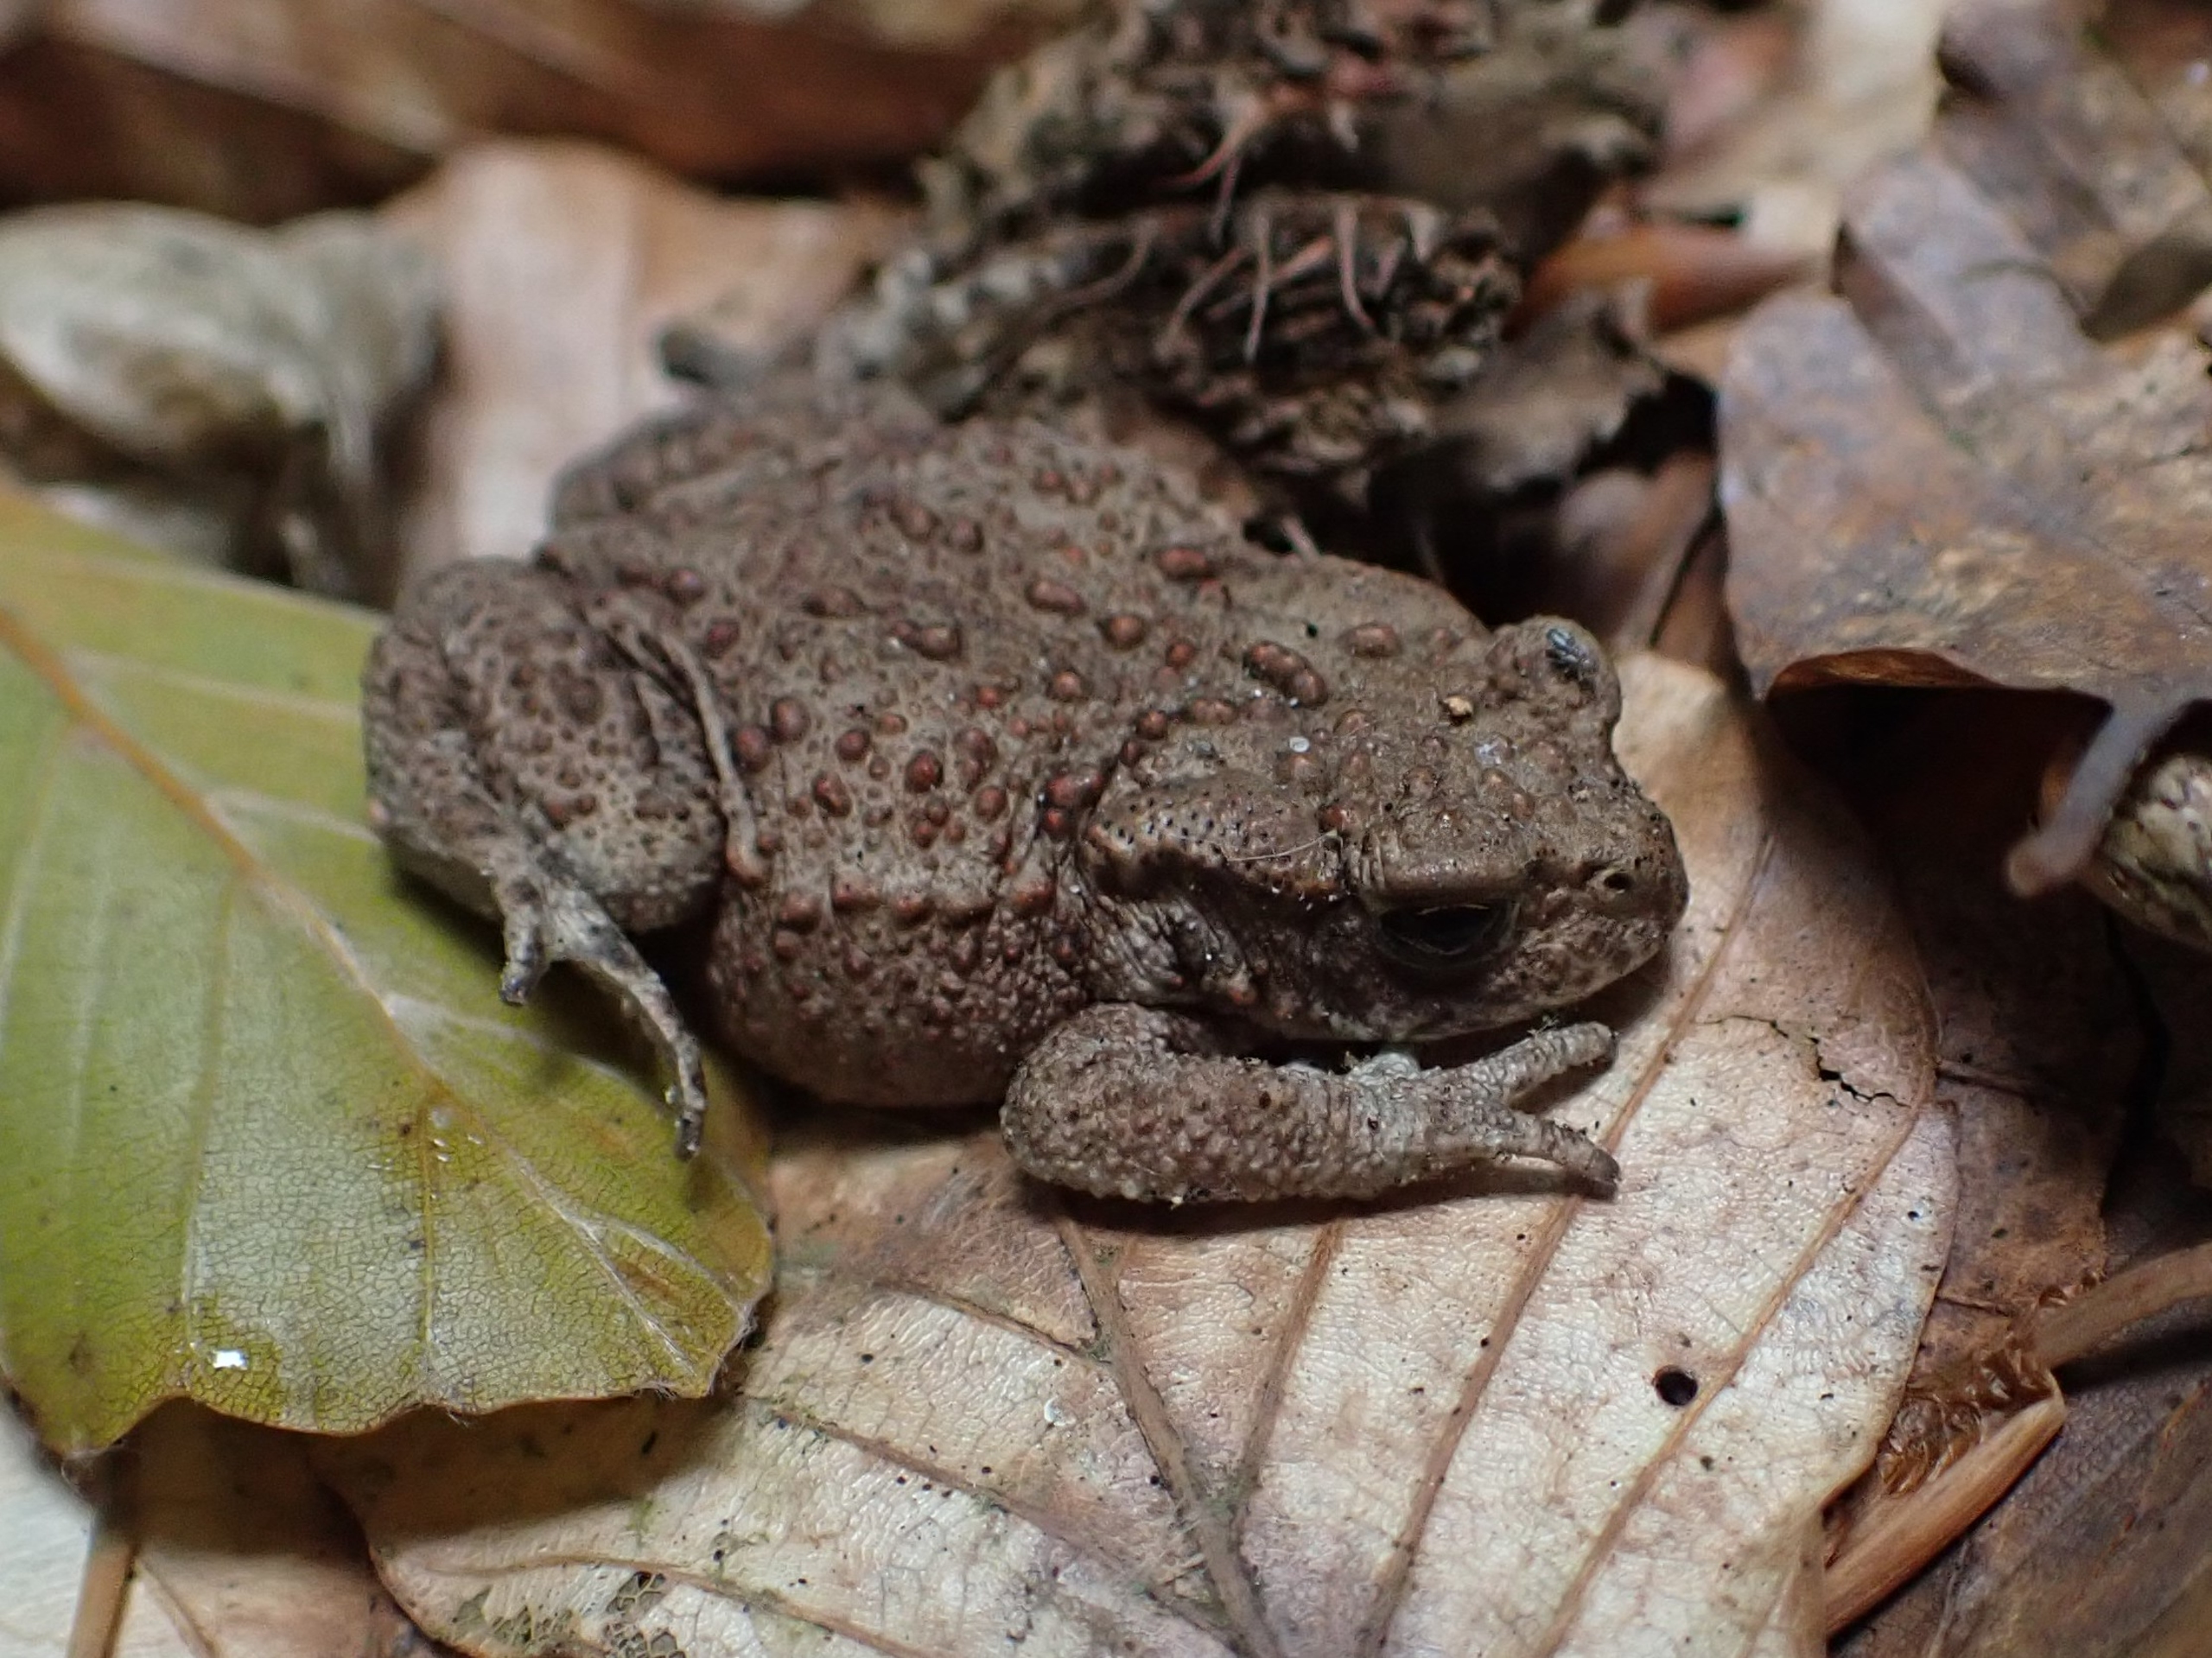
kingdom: Animalia
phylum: Chordata
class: Amphibia
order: Anura
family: Bufonidae
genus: Bufo
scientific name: Bufo bufo
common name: Skrubtudse
